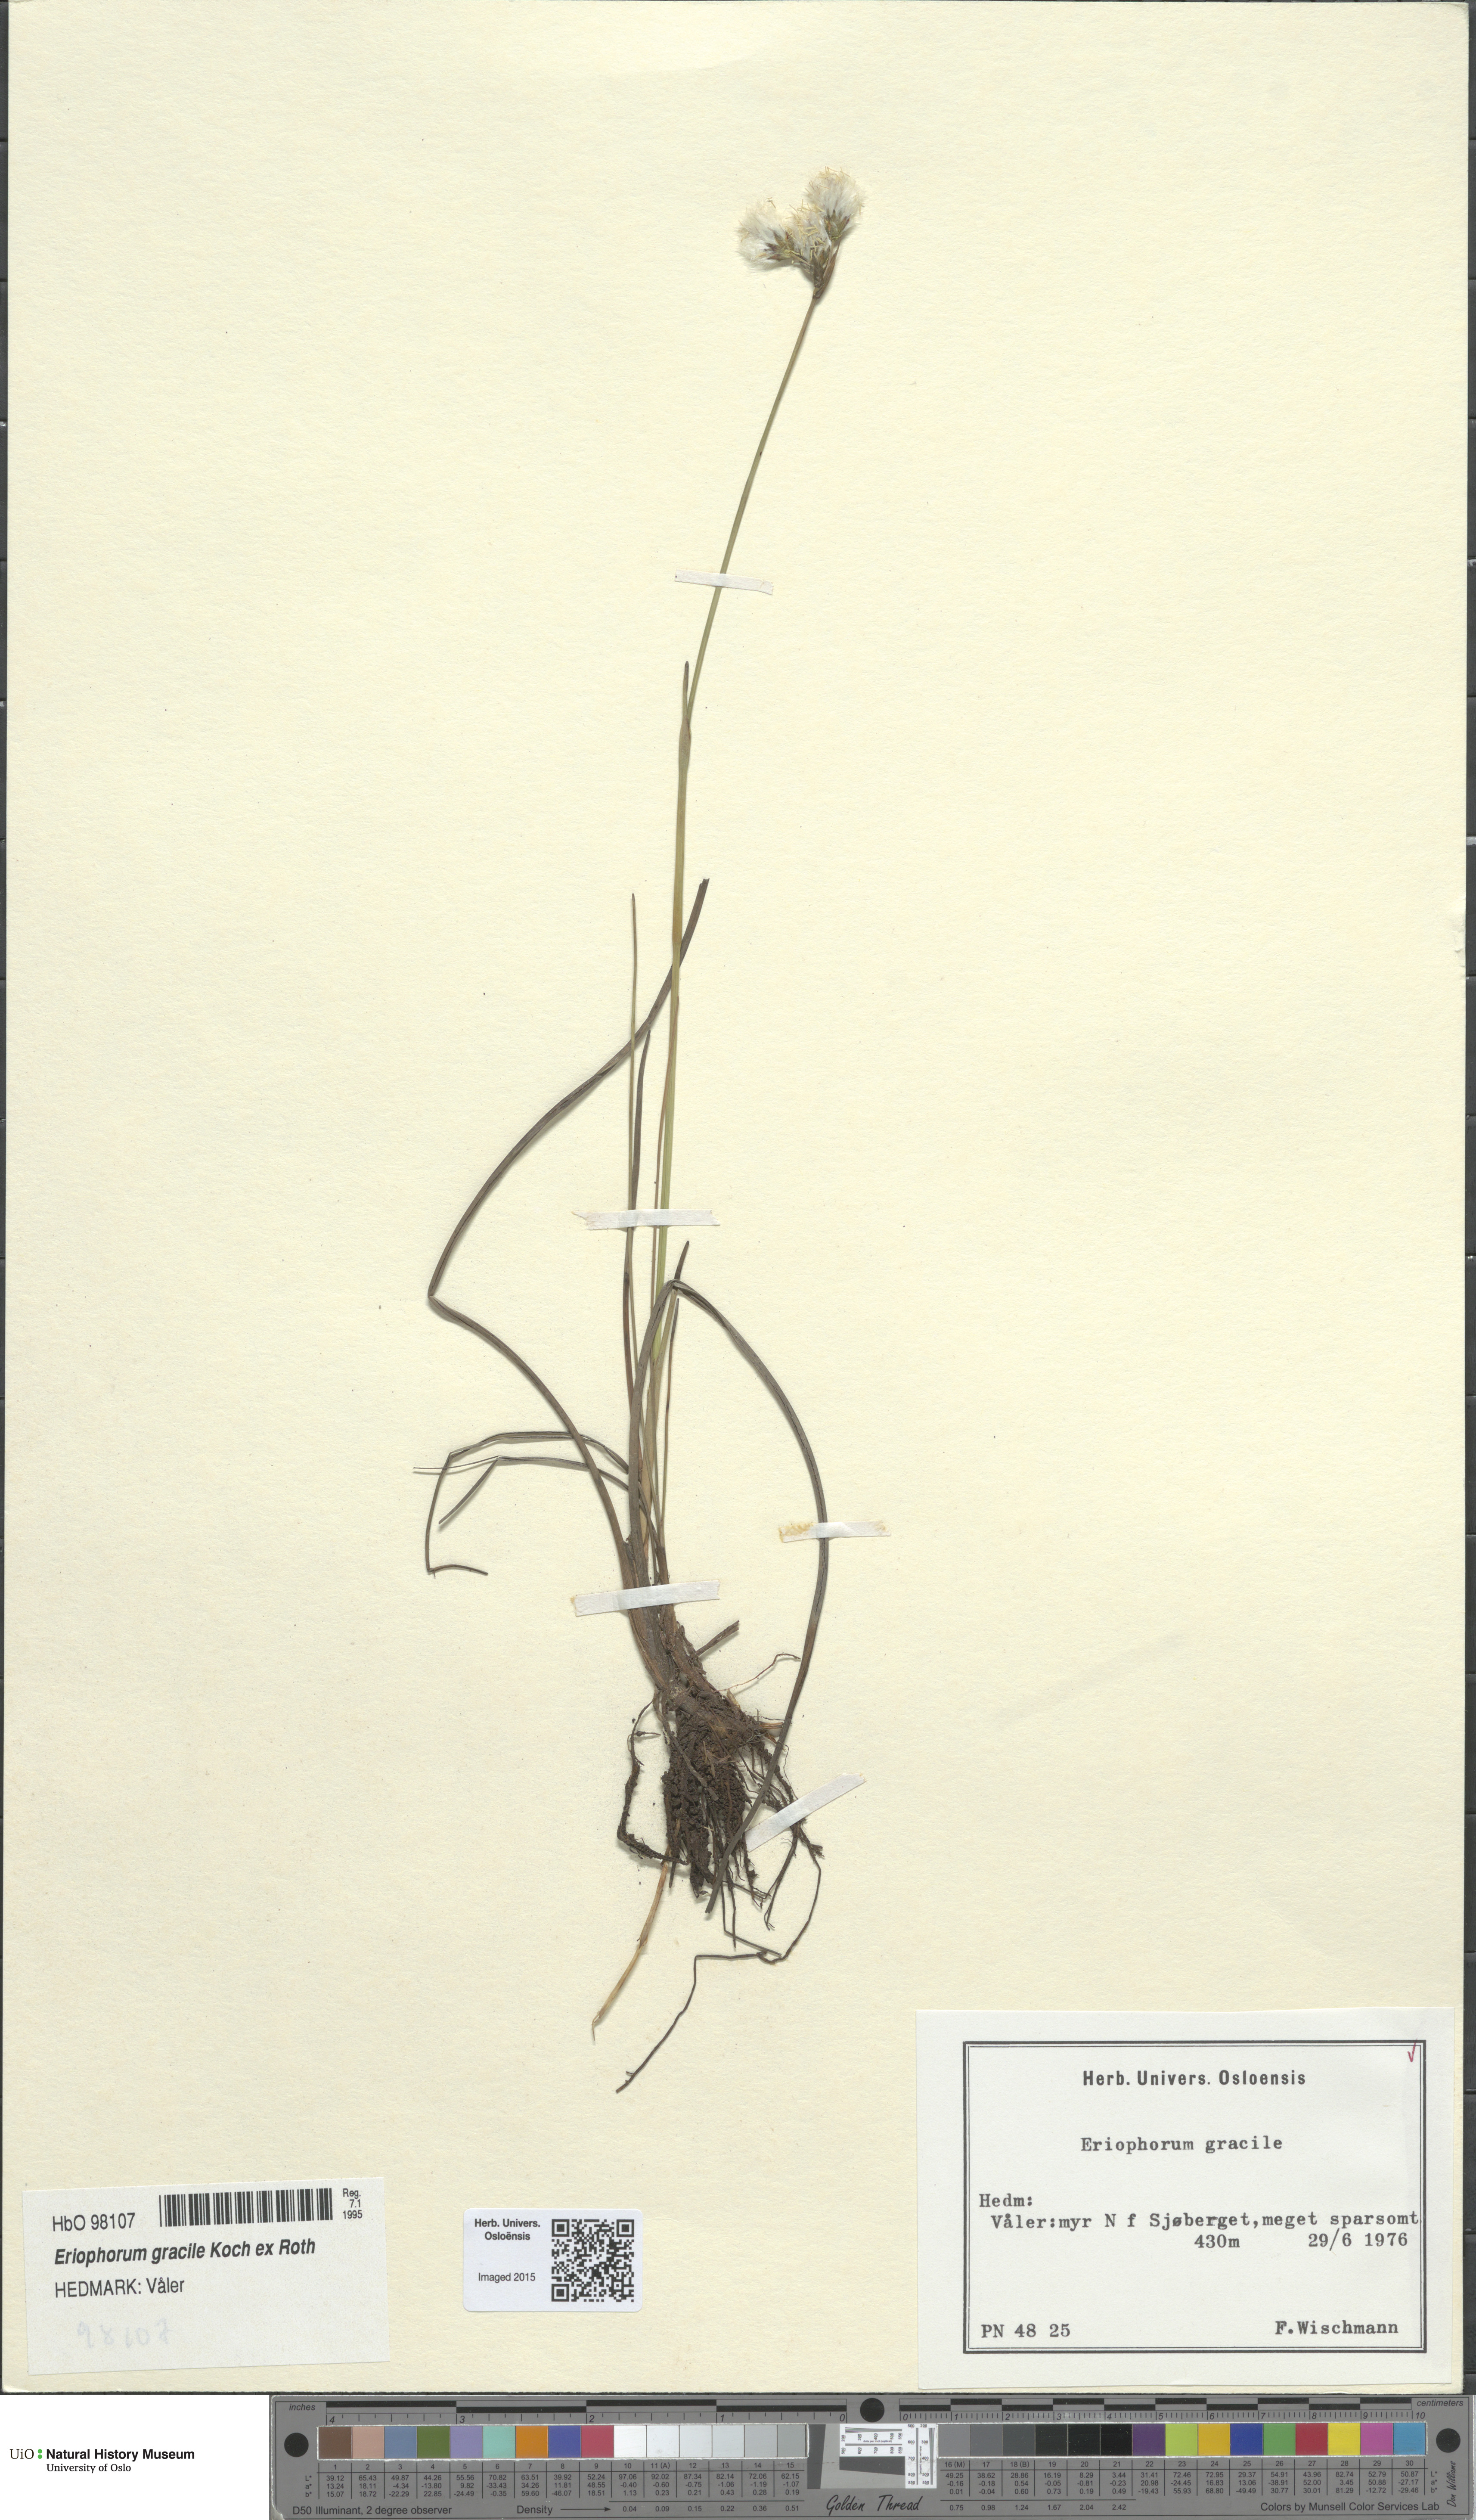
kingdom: Plantae
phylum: Tracheophyta
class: Liliopsida
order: Poales
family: Cyperaceae
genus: Eriophorum
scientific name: Eriophorum gracile
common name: Slender cottongrass
